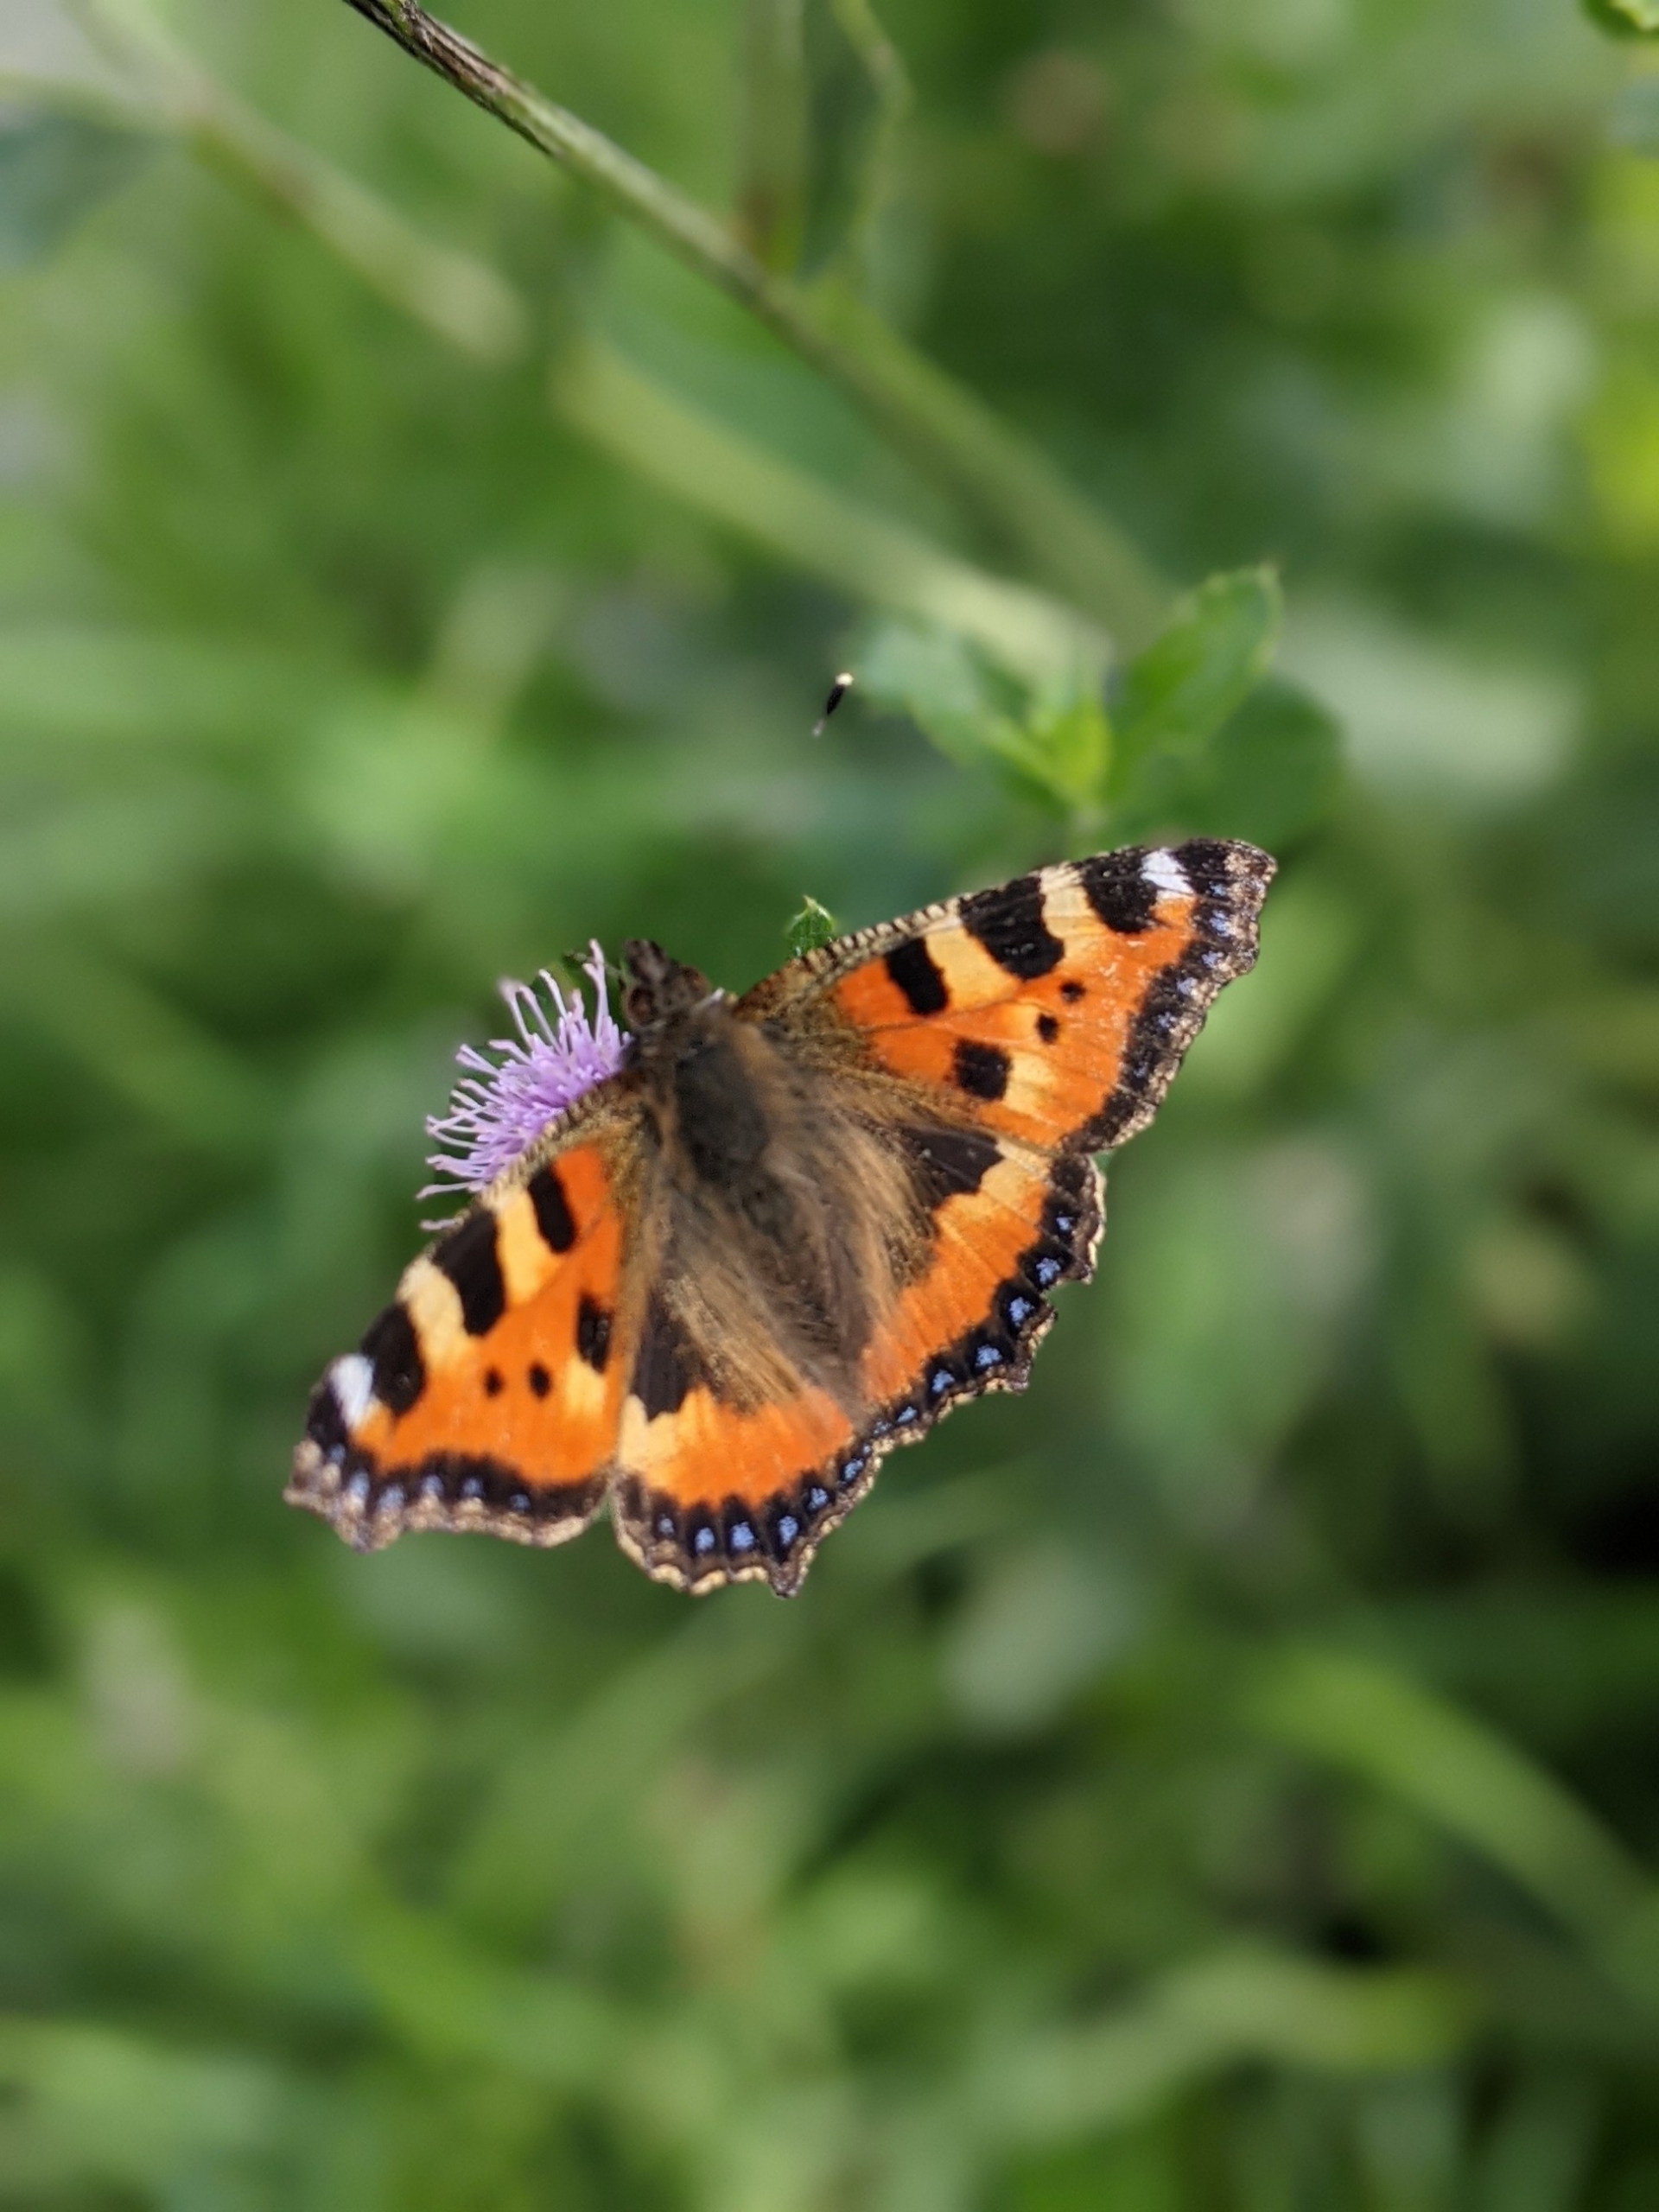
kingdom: Animalia
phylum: Arthropoda
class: Insecta
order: Lepidoptera
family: Nymphalidae
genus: Aglais
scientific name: Aglais urticae
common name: Nældens takvinge
